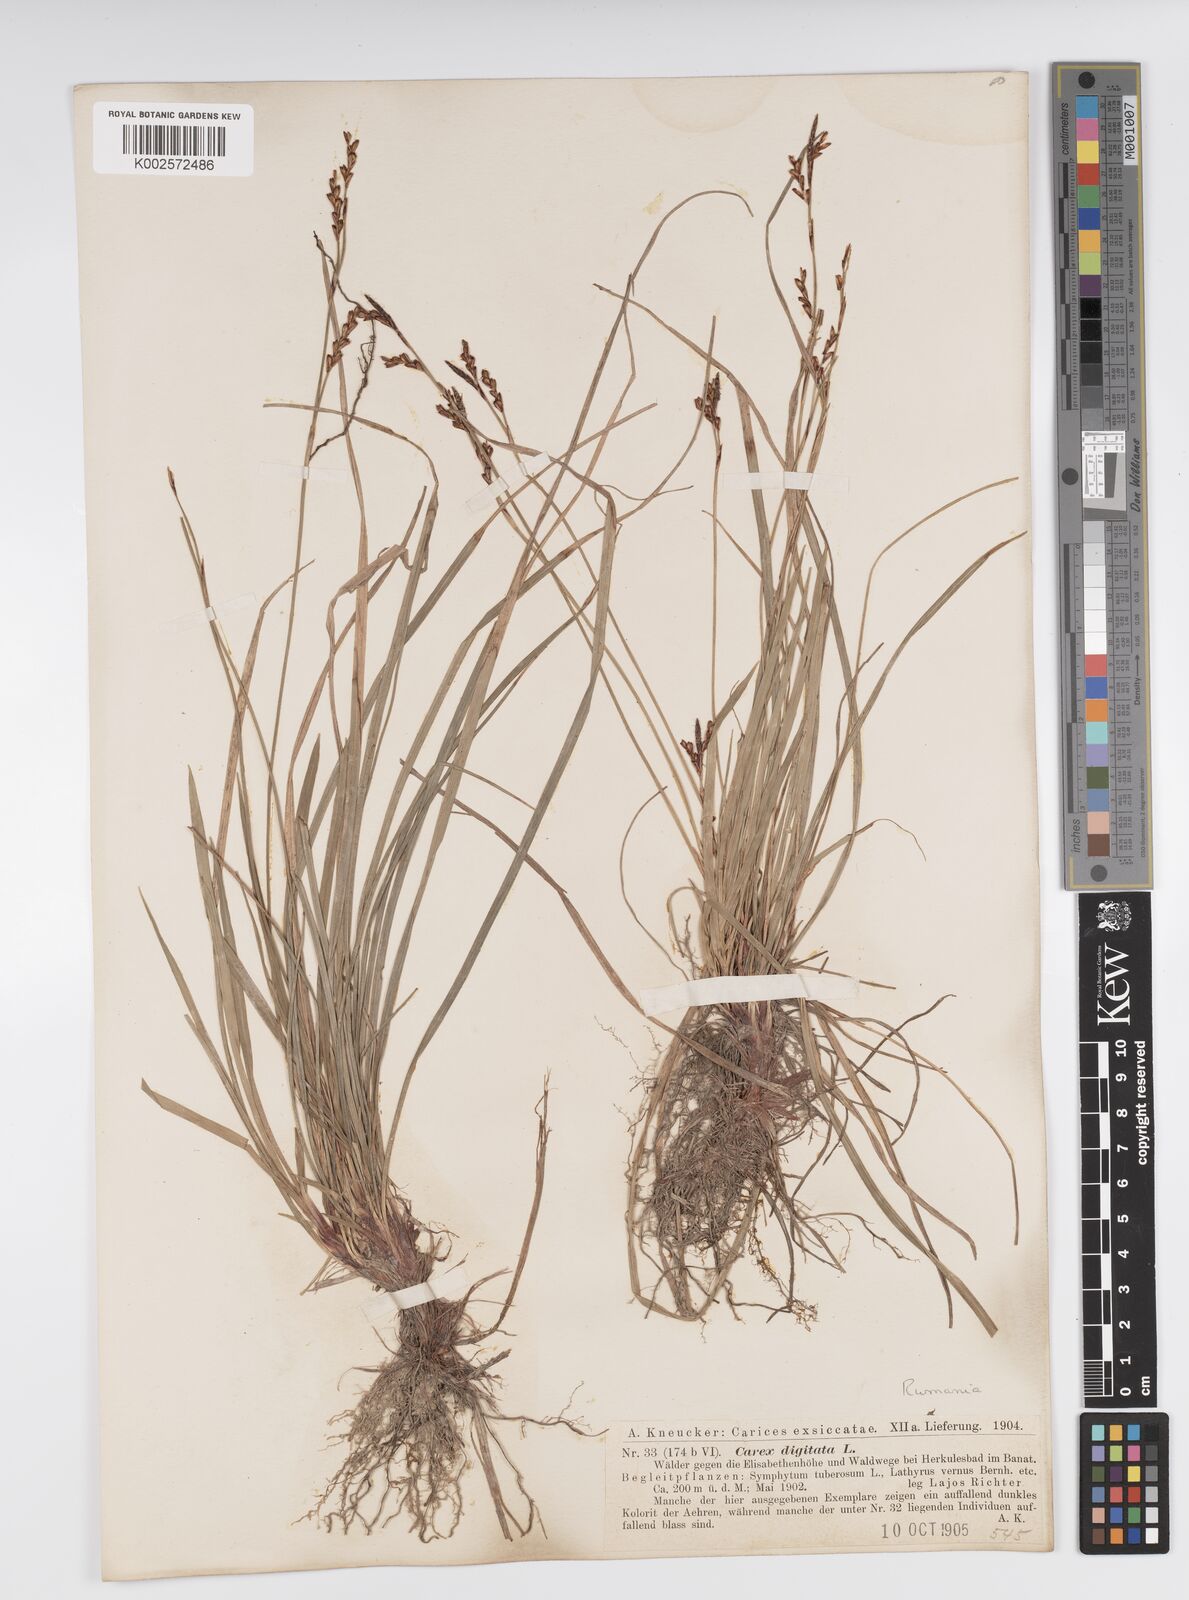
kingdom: Plantae
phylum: Tracheophyta
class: Liliopsida
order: Poales
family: Cyperaceae
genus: Carex
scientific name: Carex digitata
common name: Fingered sedge
